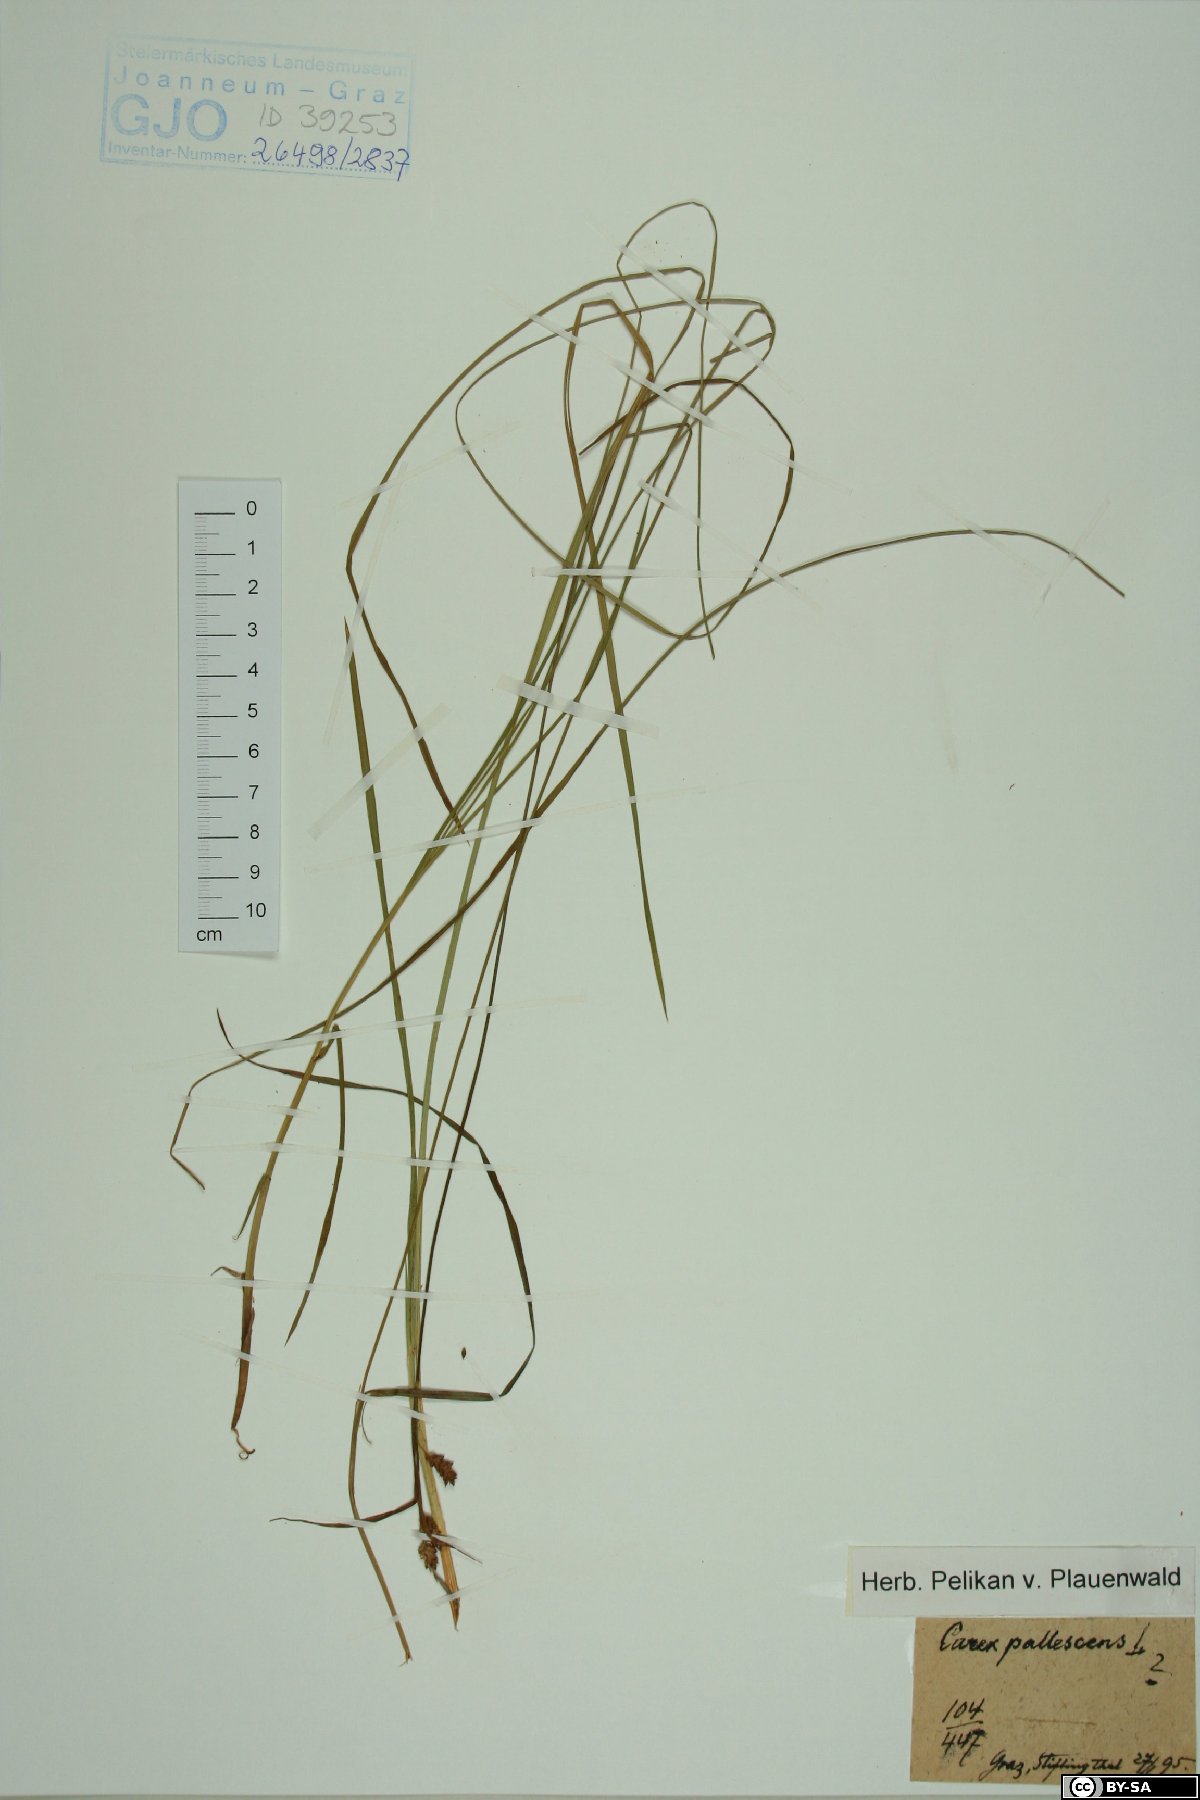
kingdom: Plantae
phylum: Tracheophyta
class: Liliopsida
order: Poales
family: Cyperaceae
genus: Carex
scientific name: Carex pallescens
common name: Pale sedge
